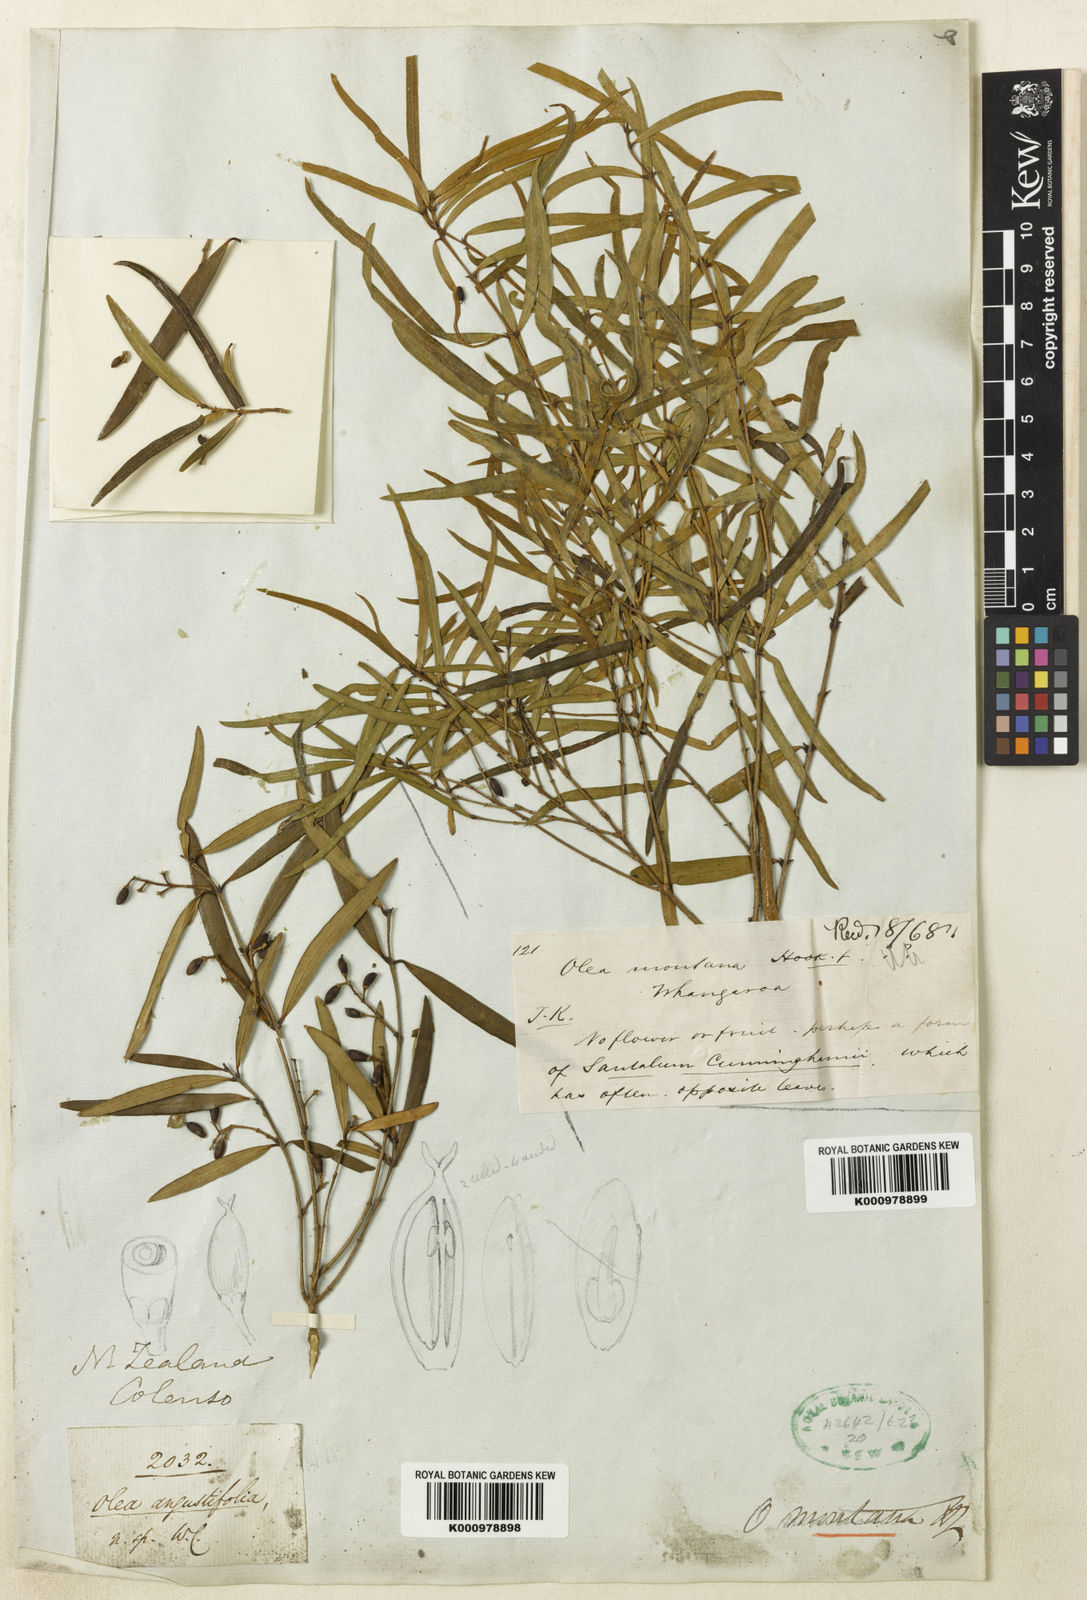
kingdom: Plantae
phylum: Tracheophyta
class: Magnoliopsida
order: Lamiales
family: Oleaceae
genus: Nestegis
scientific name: Nestegis montana
